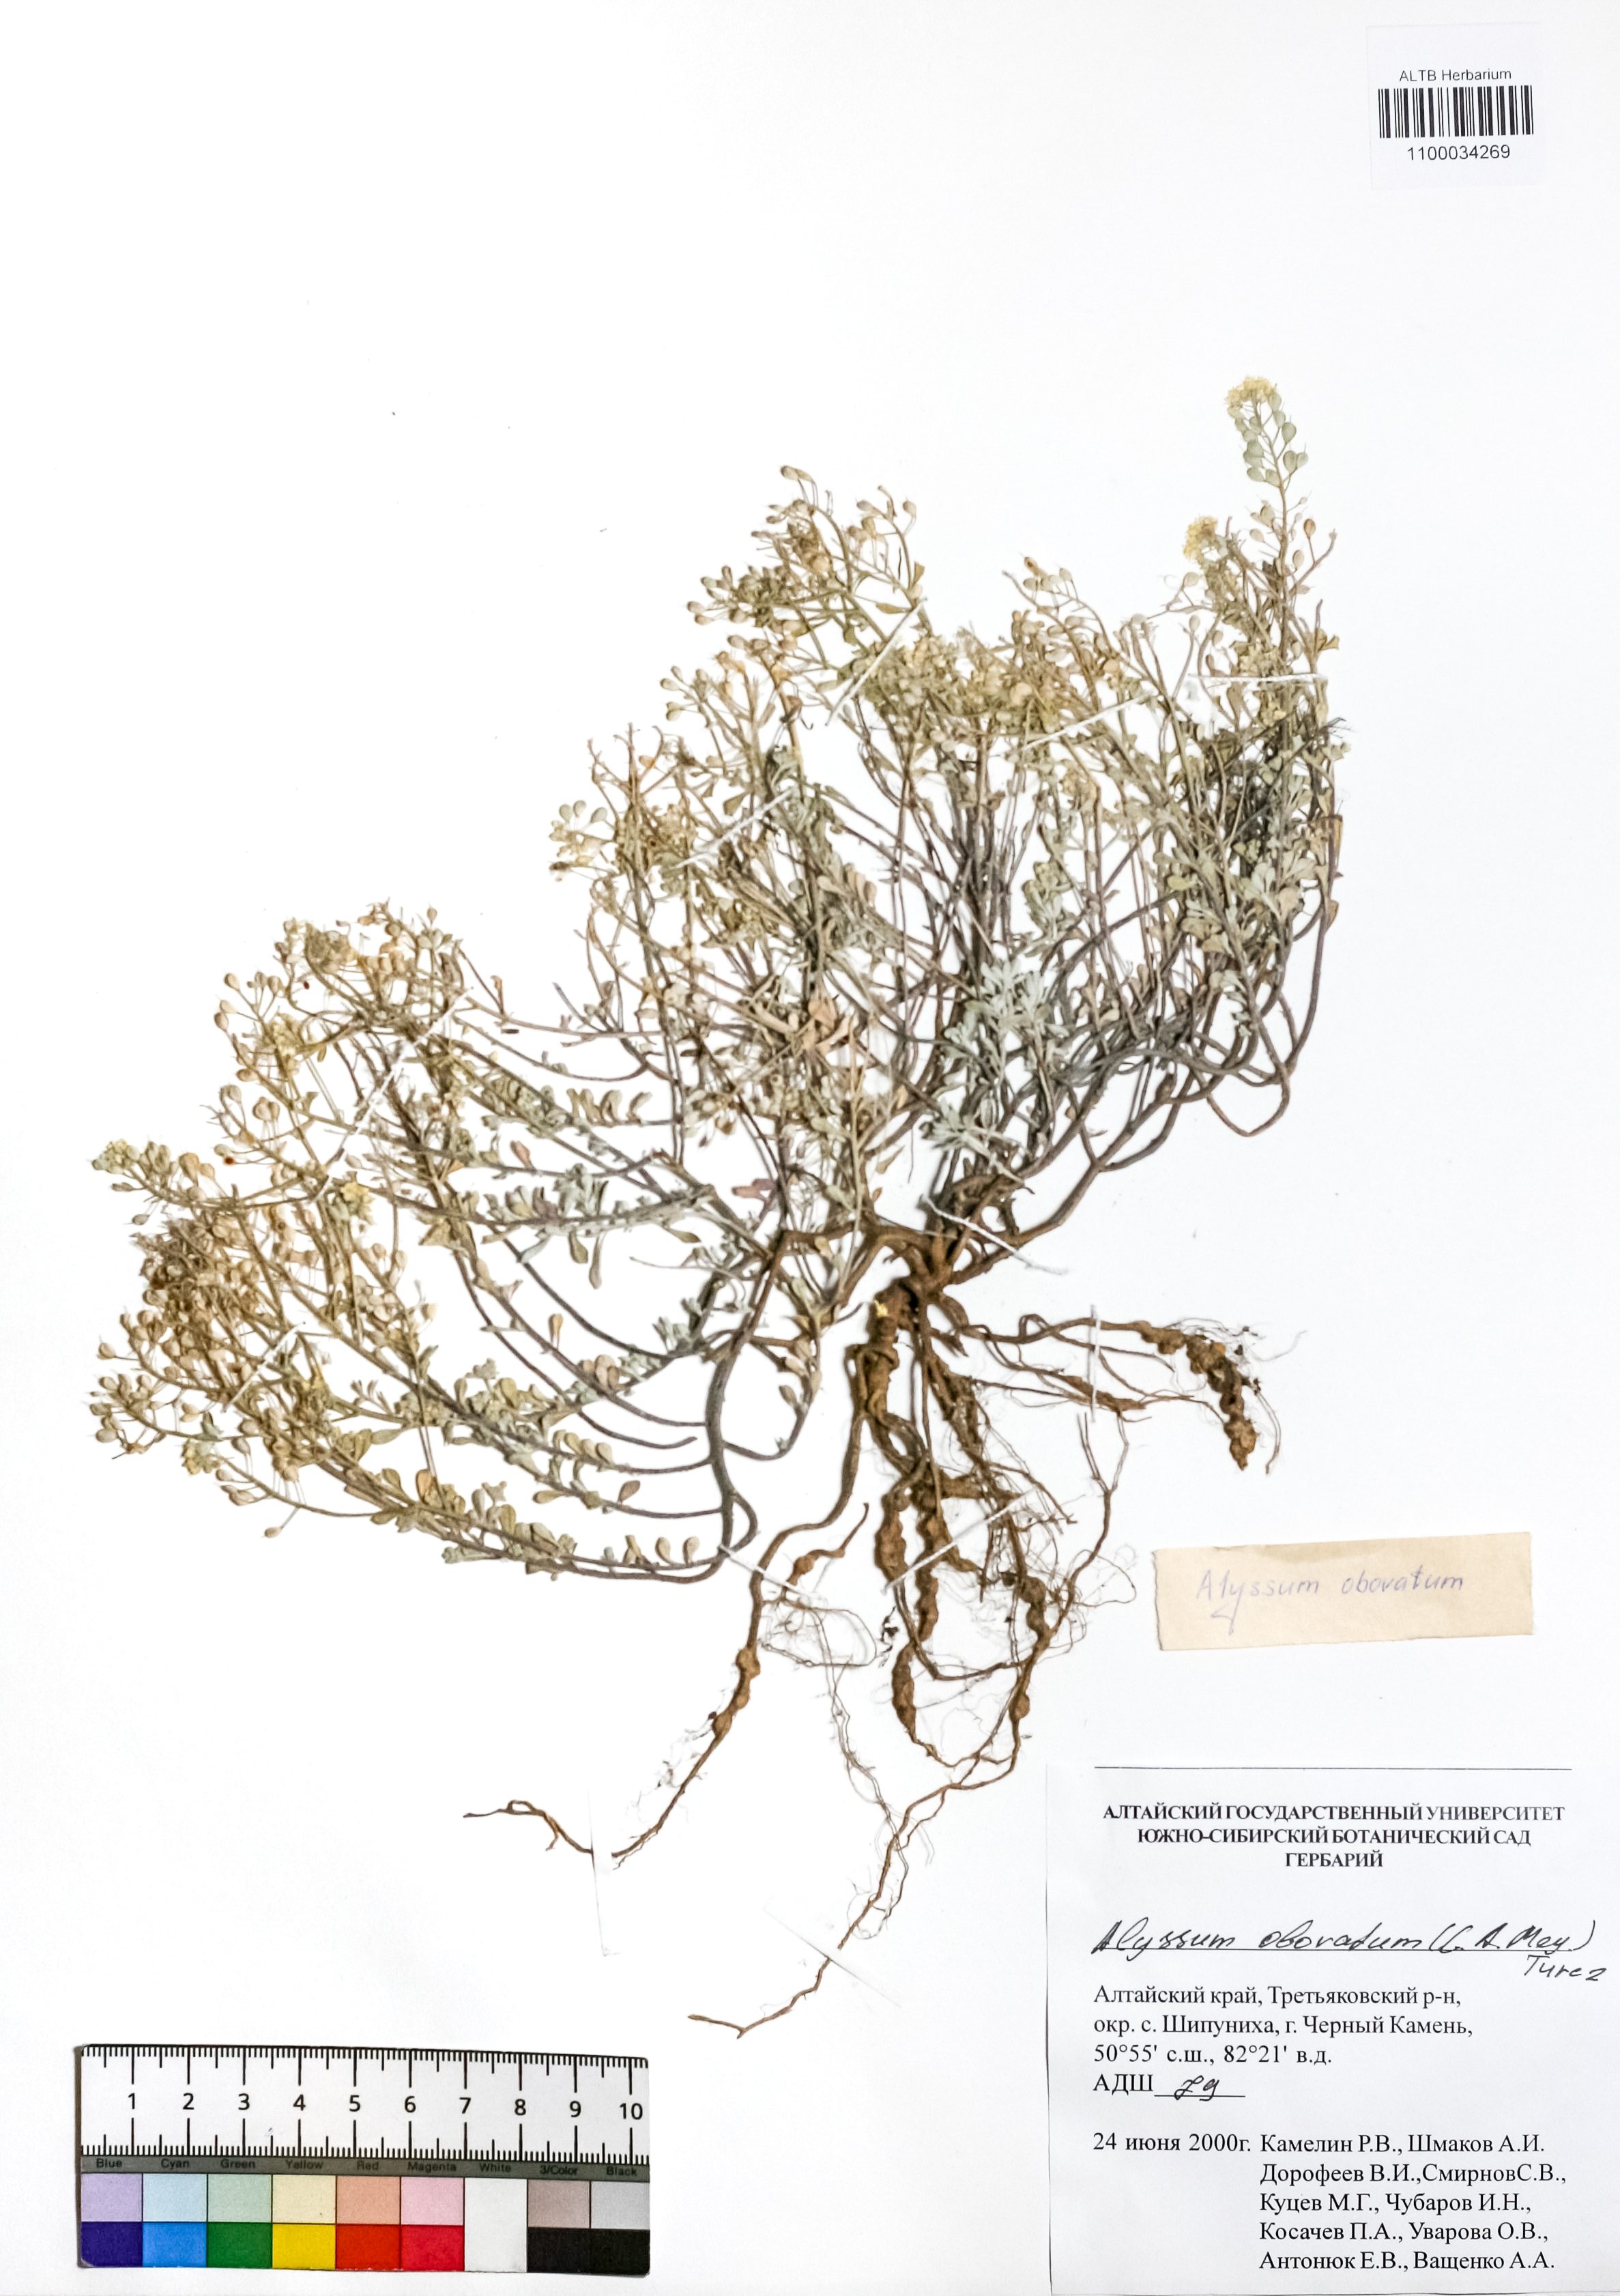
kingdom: Plantae
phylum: Tracheophyta
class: Magnoliopsida
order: Brassicales
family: Brassicaceae
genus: Odontarrhena
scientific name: Odontarrhena obovata
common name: American alyssum
